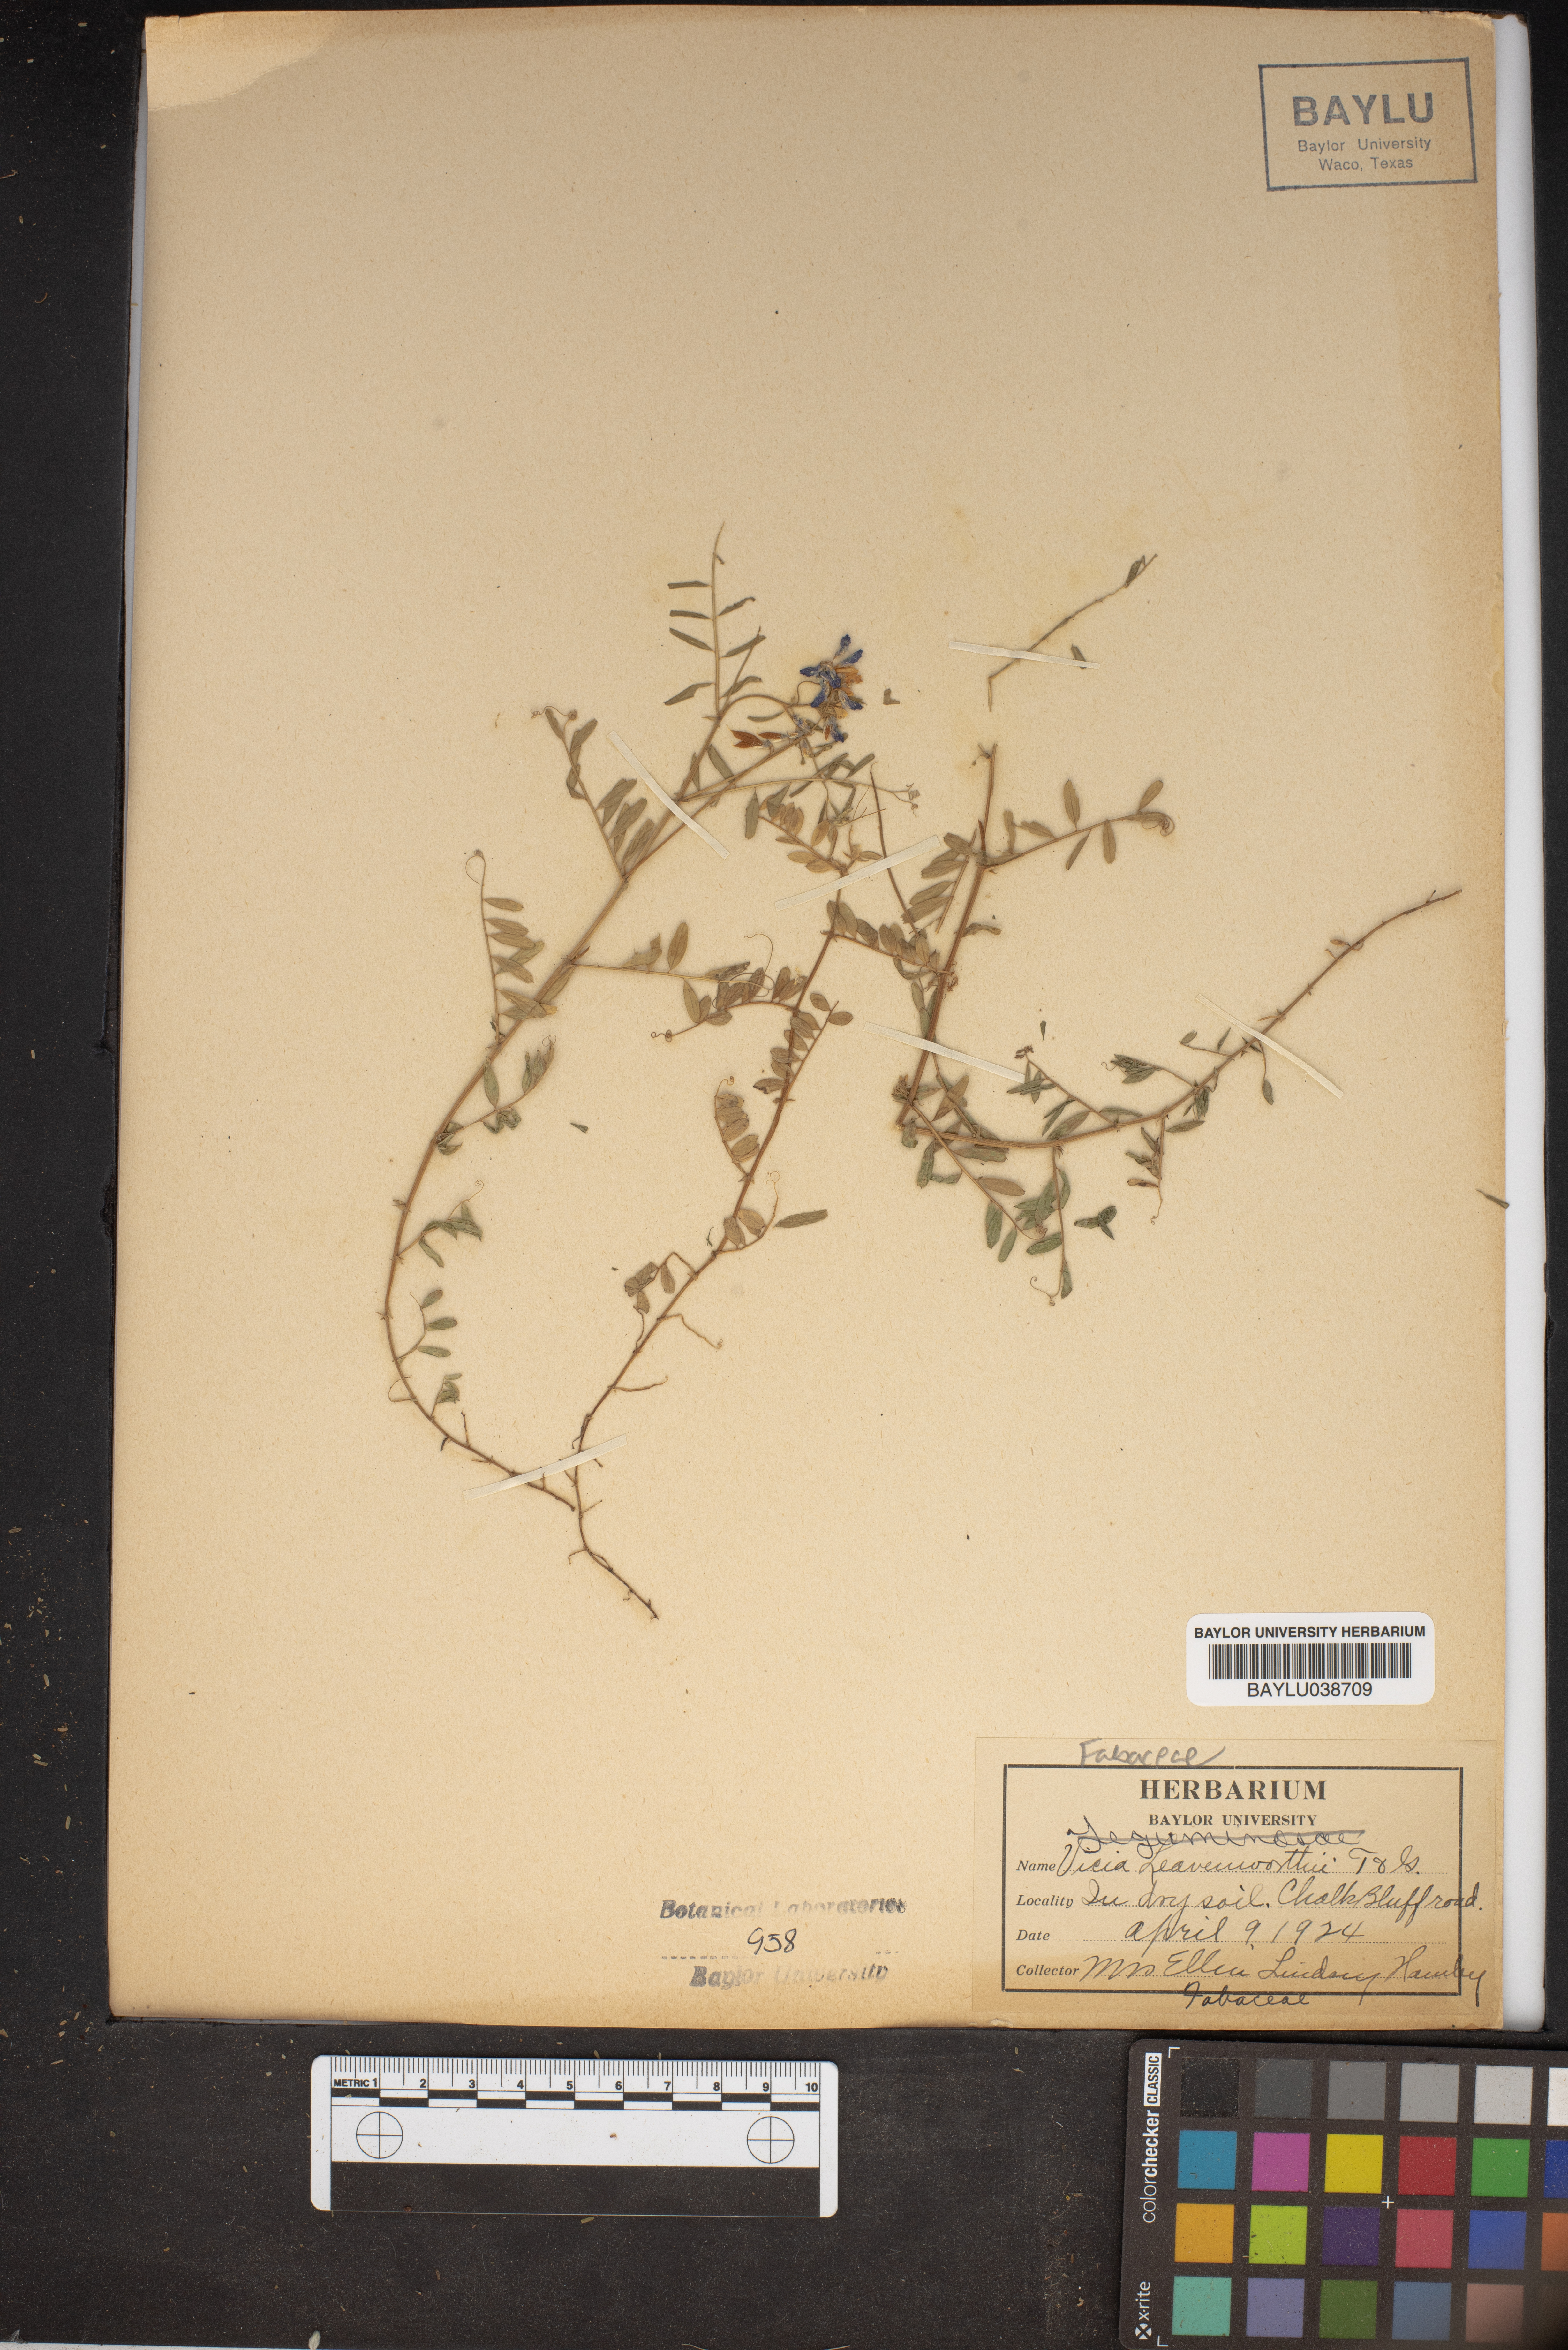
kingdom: Plantae
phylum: Tracheophyta
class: Magnoliopsida
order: Fabales
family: Fabaceae
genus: Vicia
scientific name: Vicia ludoviciana
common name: Louisiana vetch
